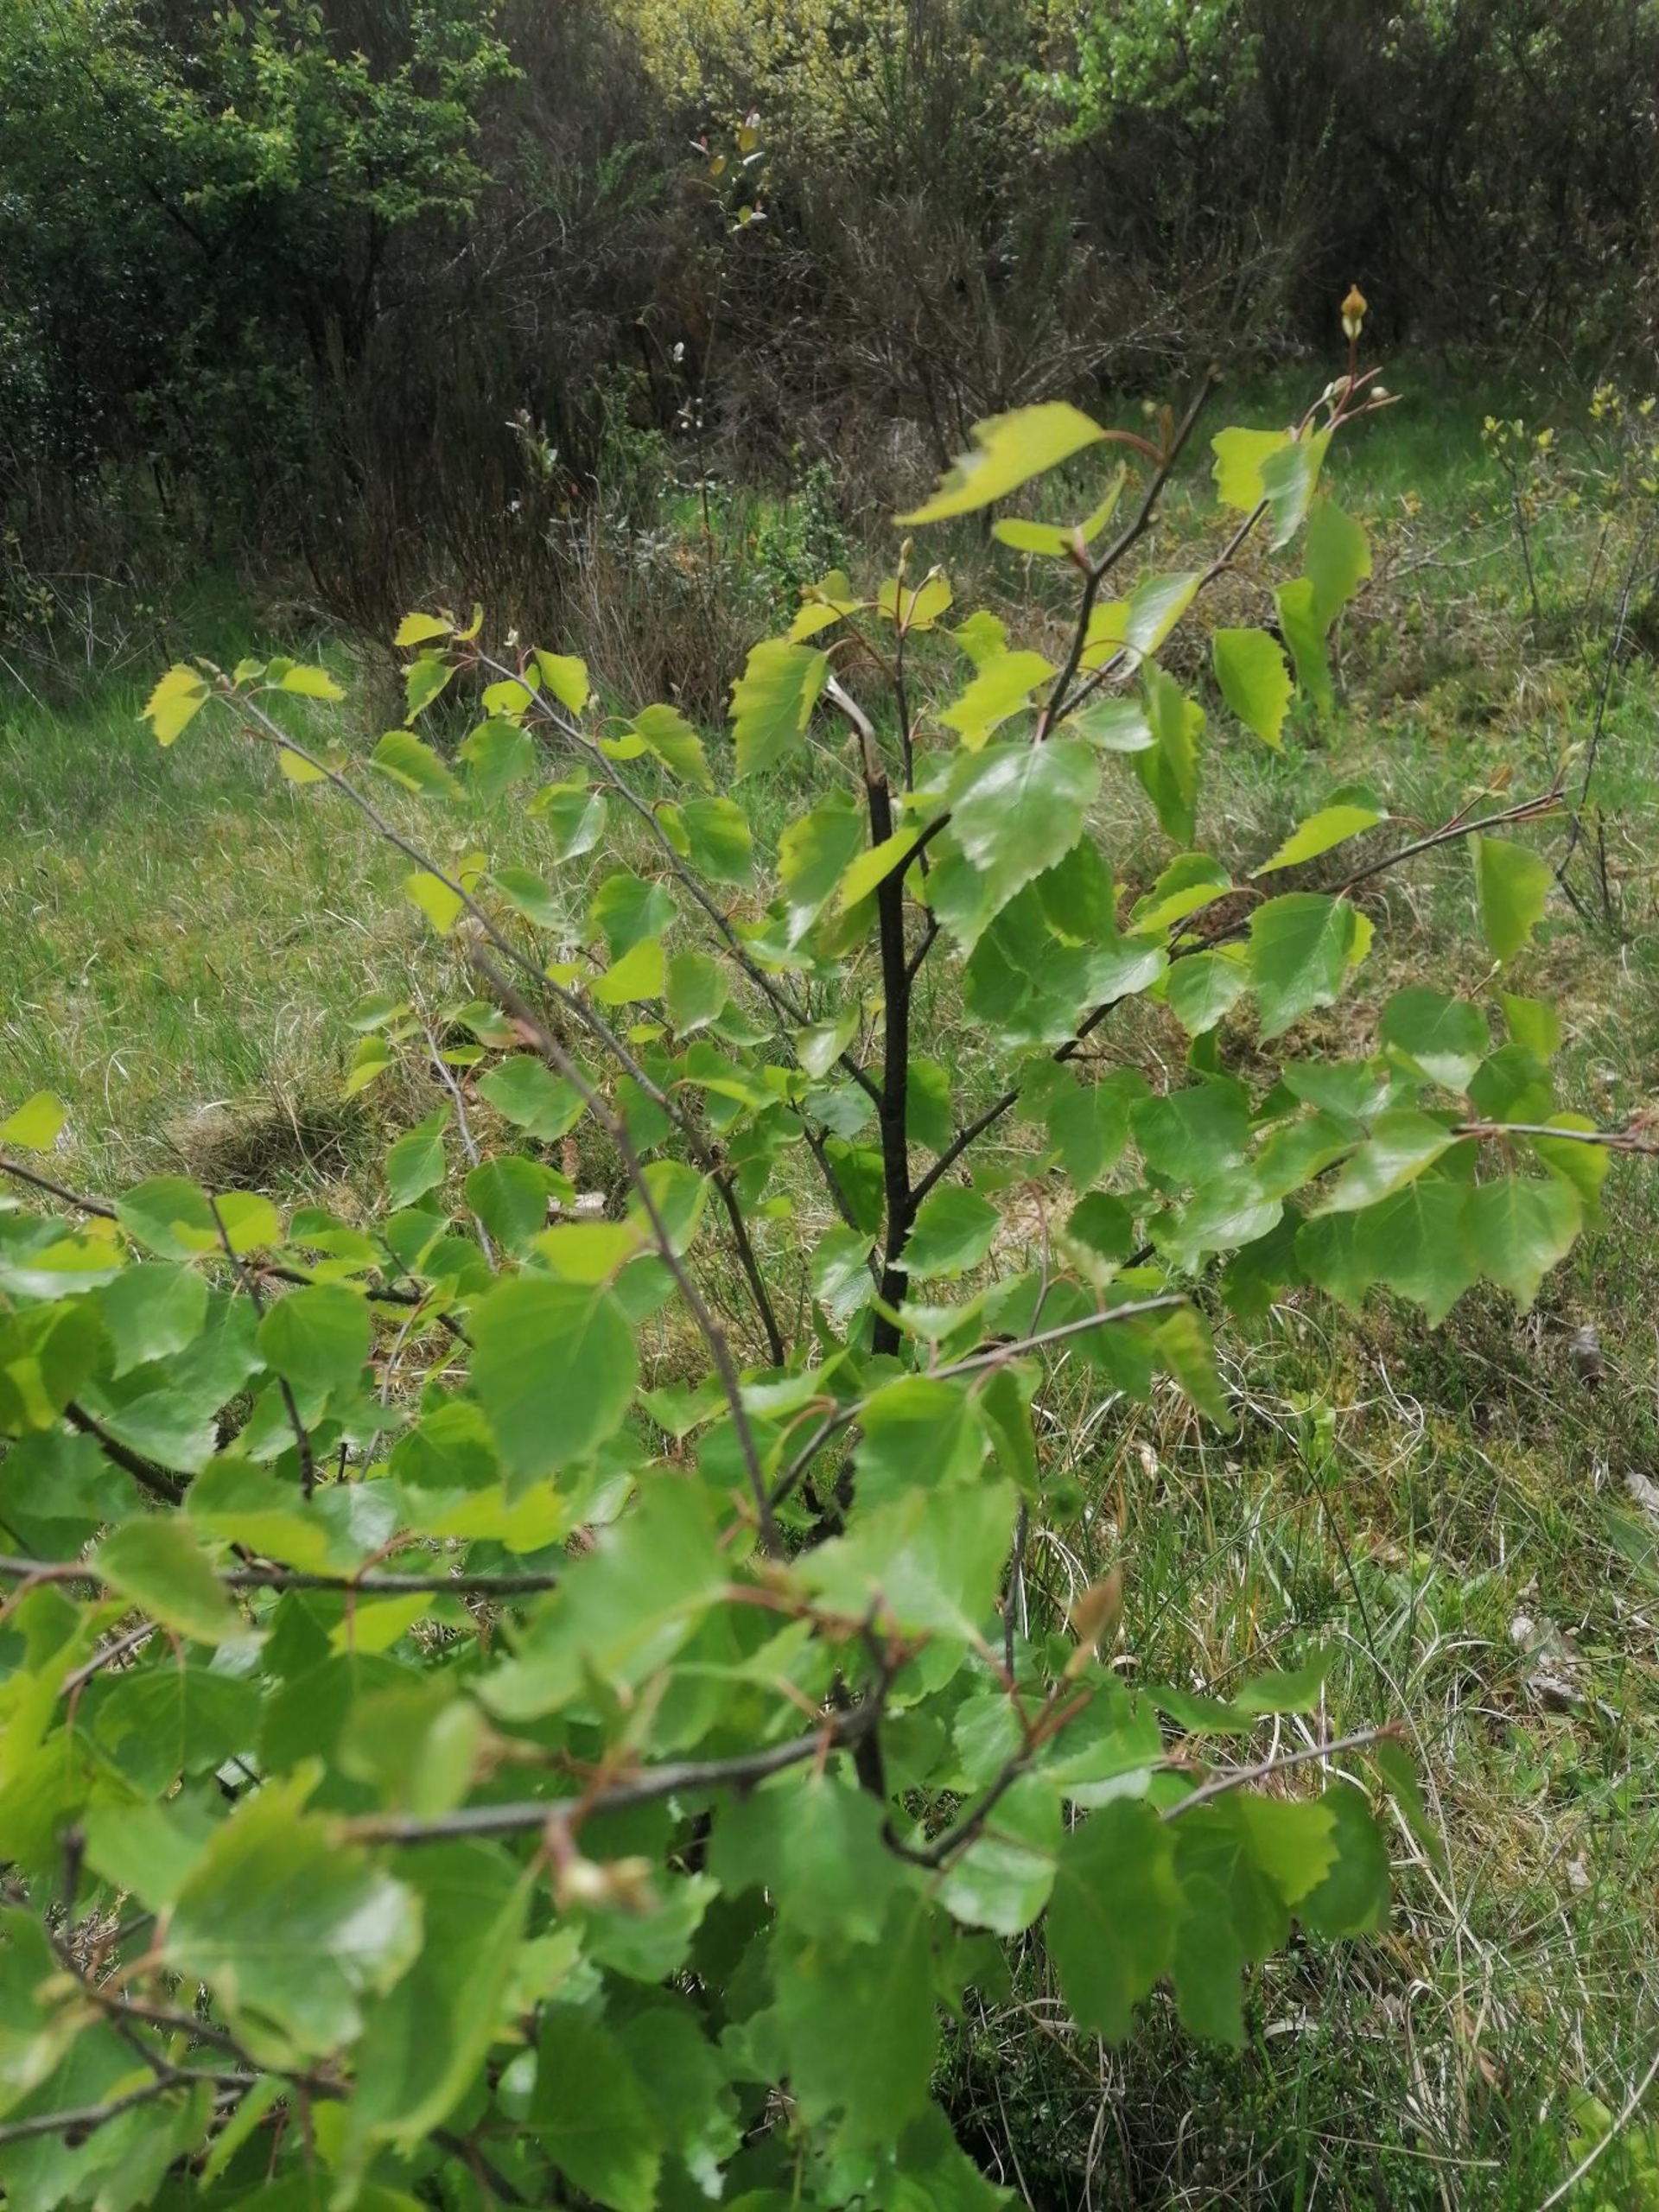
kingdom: Plantae
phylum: Tracheophyta
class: Magnoliopsida
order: Fagales
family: Betulaceae
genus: Betula
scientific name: Betula pendula
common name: Vorte-birk
